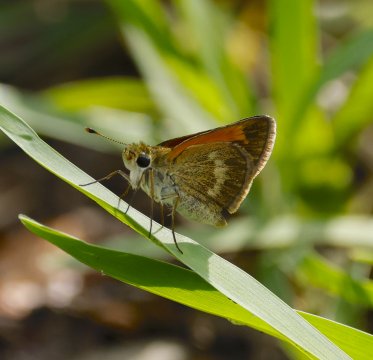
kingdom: Animalia
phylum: Arthropoda
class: Insecta
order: Lepidoptera
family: Hesperiidae
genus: Polites
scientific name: Polites baracoa
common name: Baracoa Skipper
